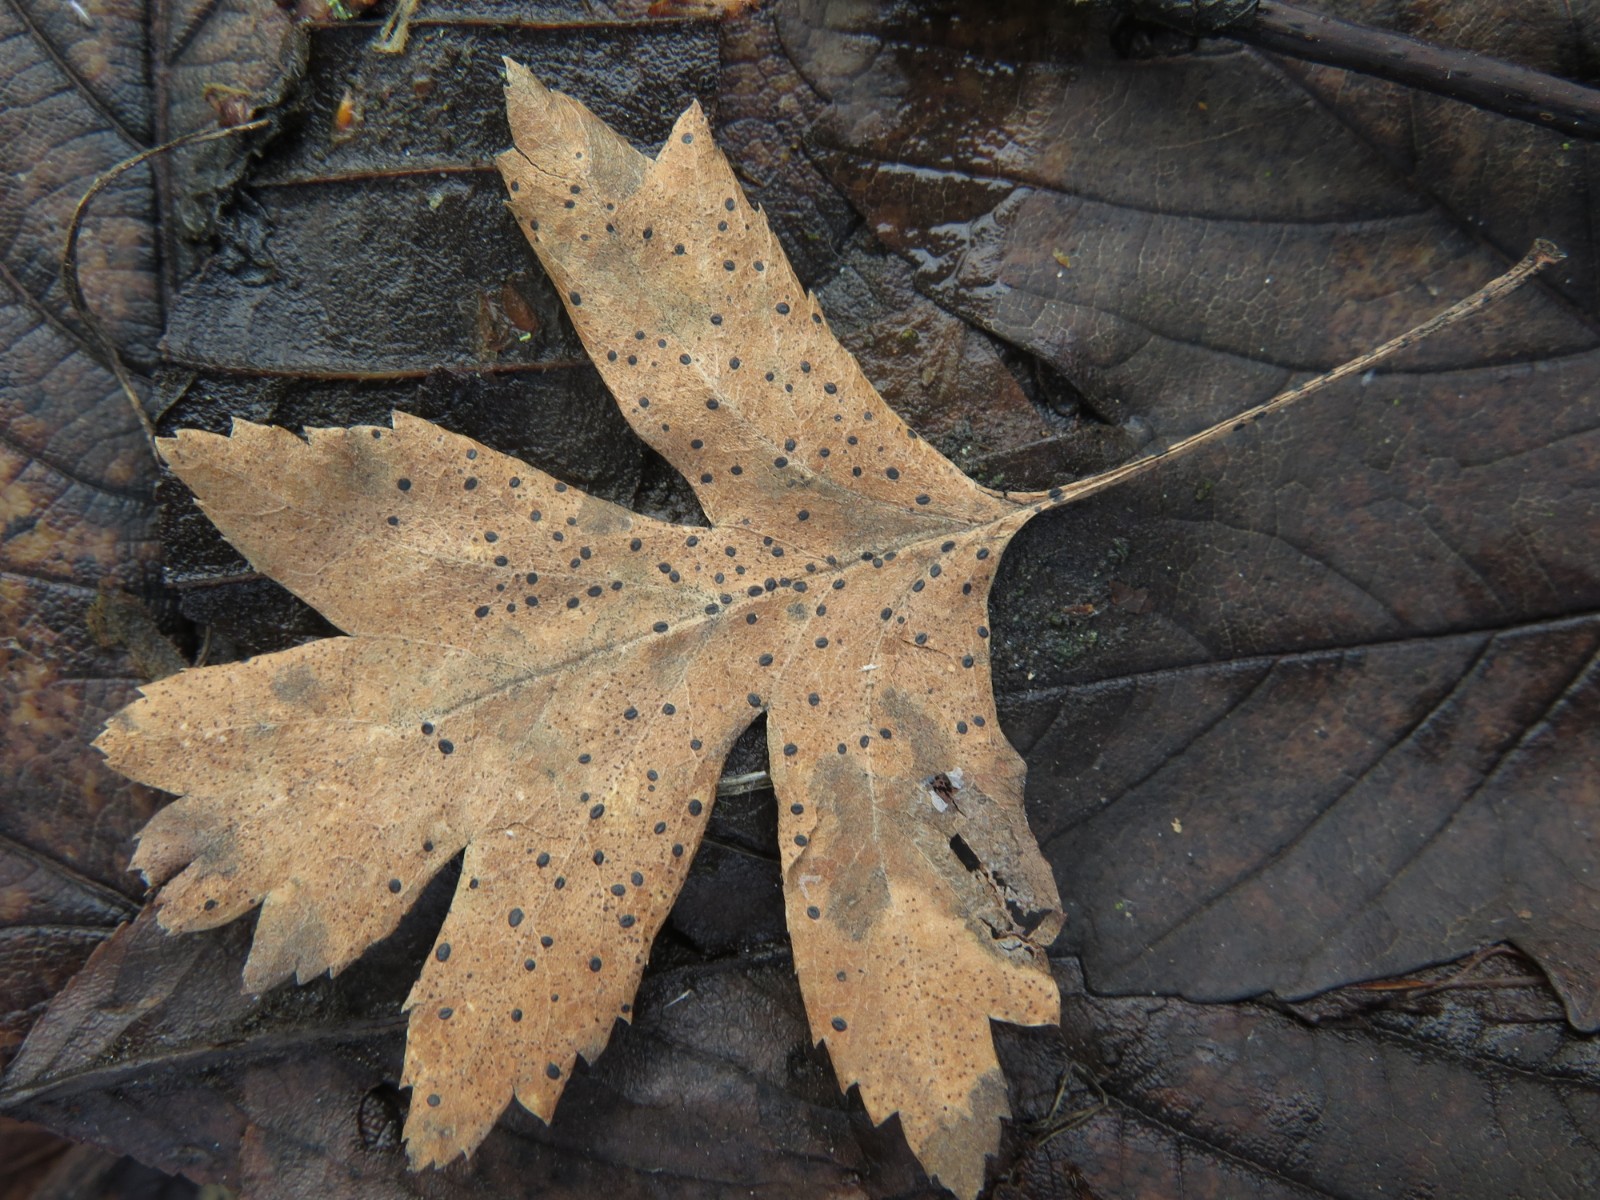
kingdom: Fungi
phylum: Ascomycota
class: Leotiomycetes
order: Rhytismatales
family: Rhytismataceae
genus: Lophodermium
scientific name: Lophodermium foliicola
